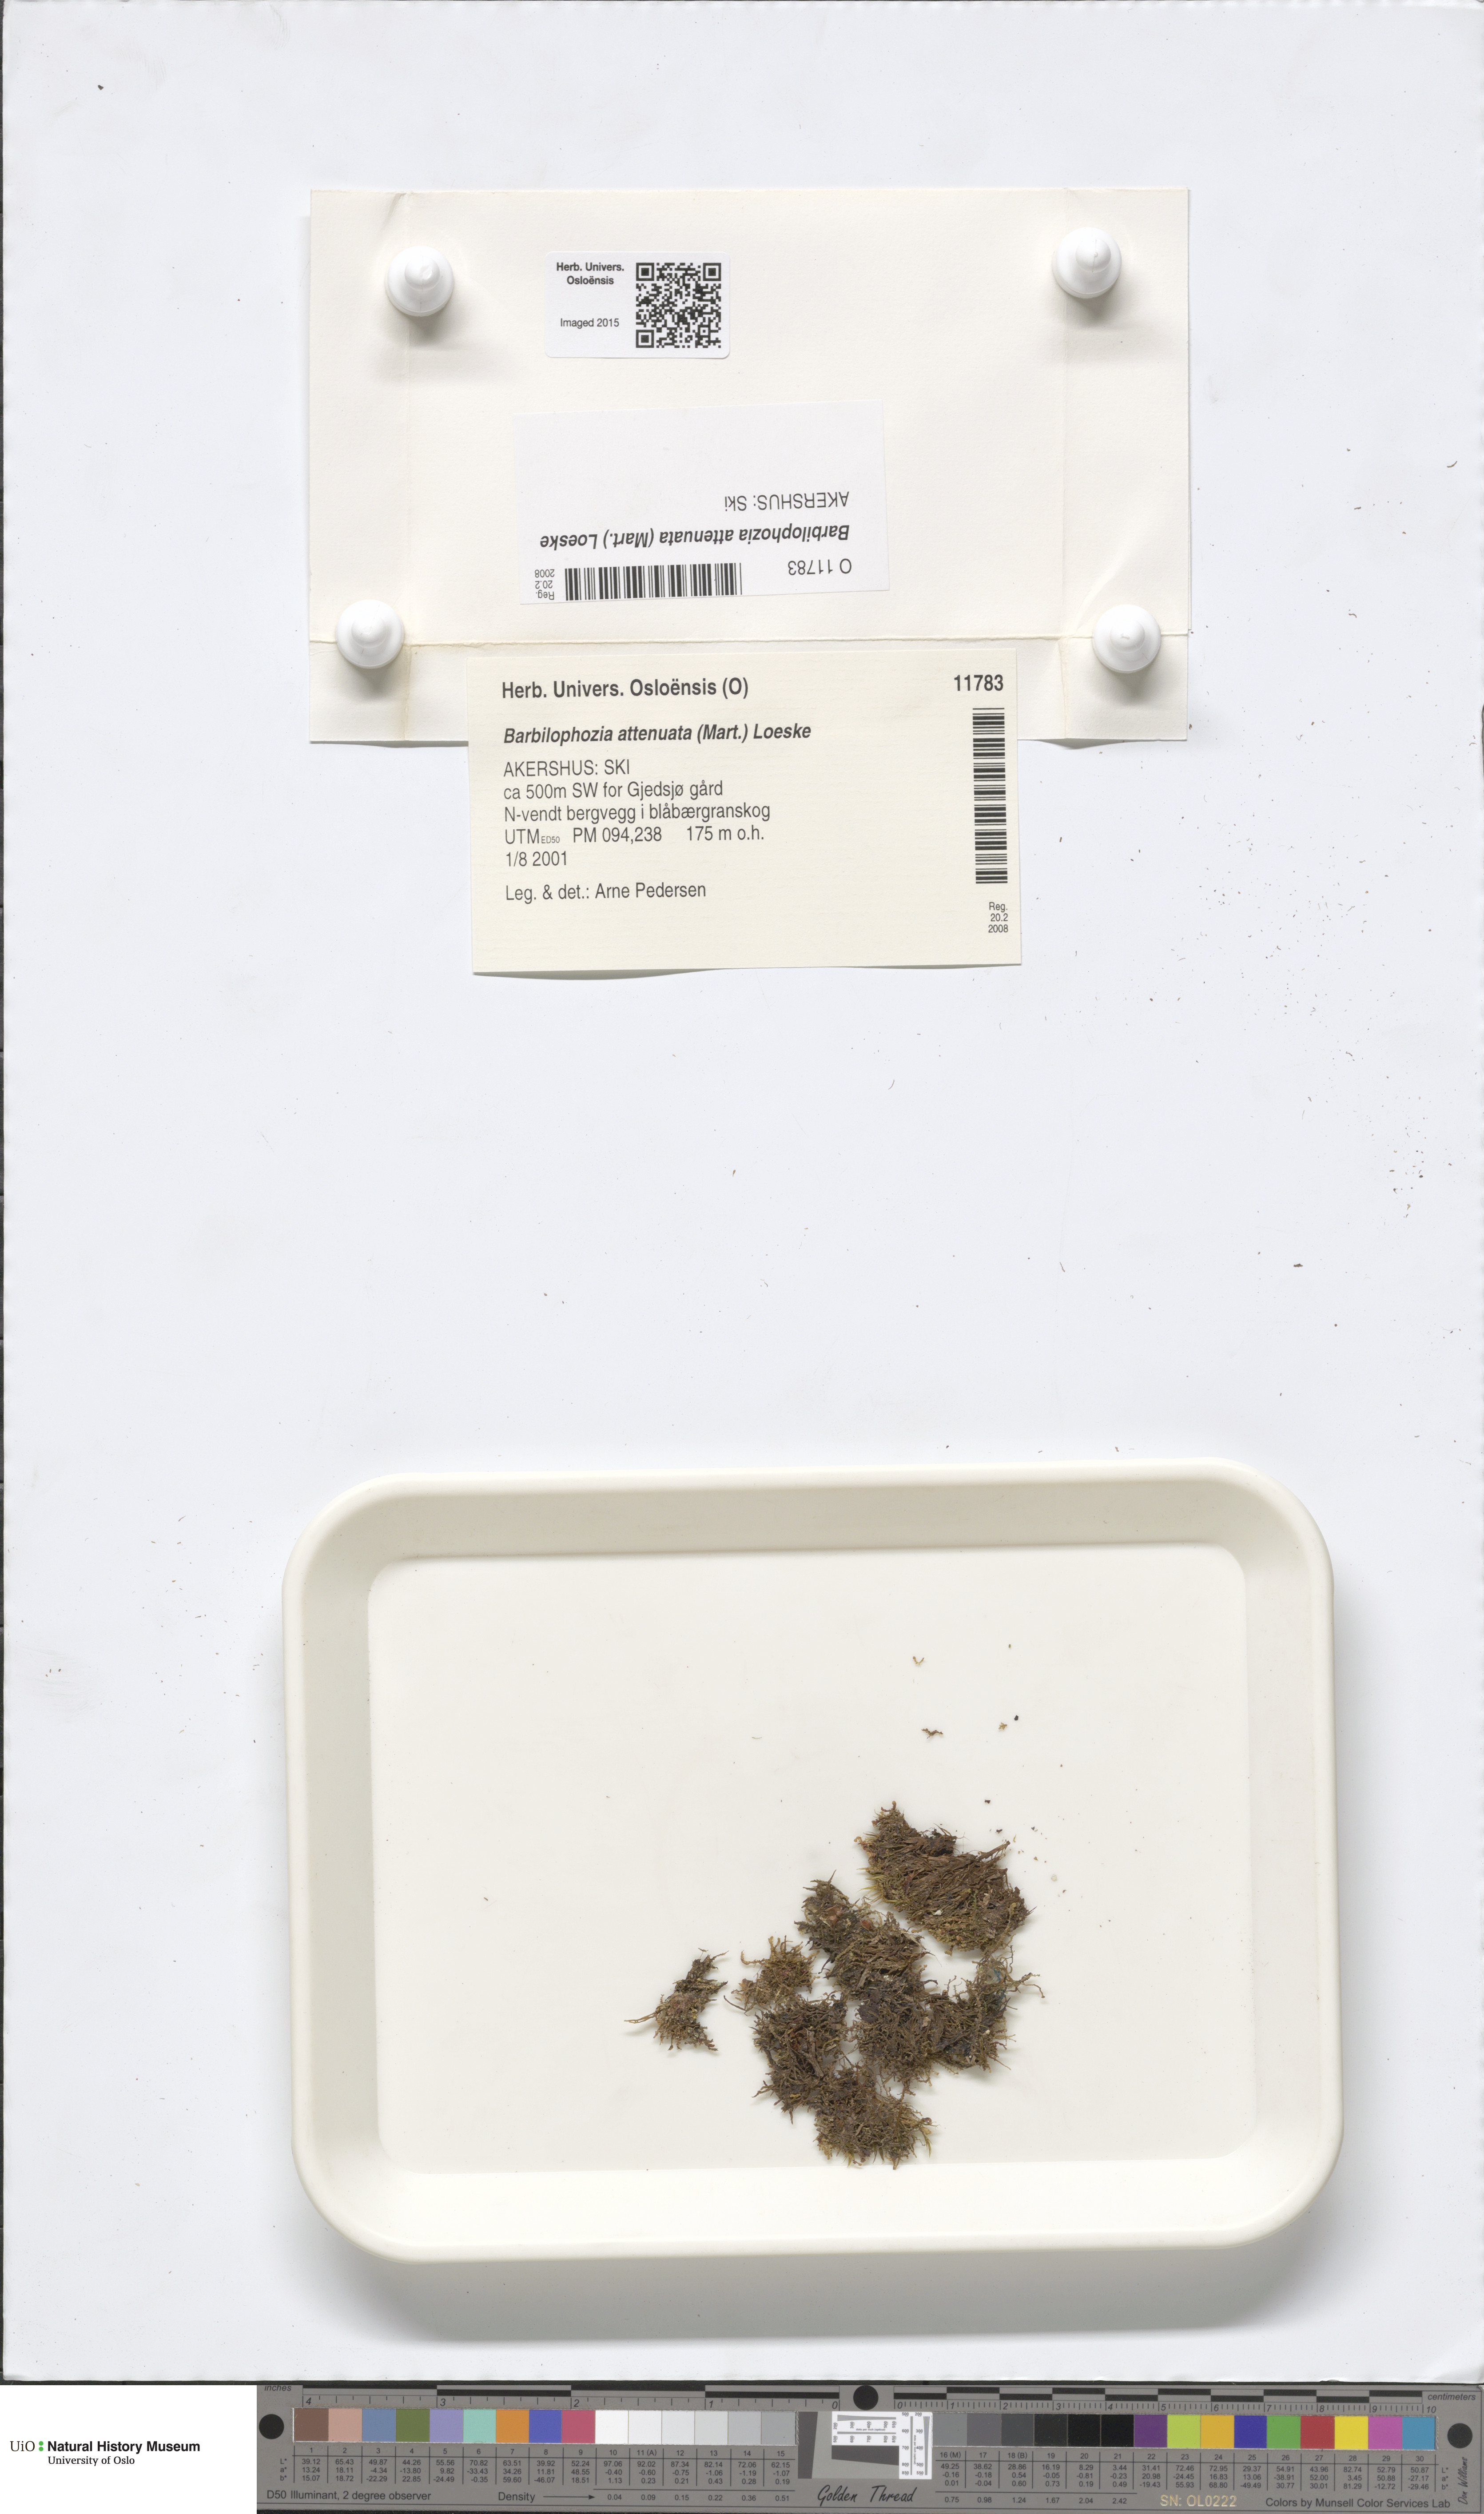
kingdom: Plantae
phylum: Marchantiophyta
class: Jungermanniopsida
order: Jungermanniales
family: Anastrophyllaceae
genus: Neoorthocaulis
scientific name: Neoorthocaulis attenuatus
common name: Trunk pawwort
